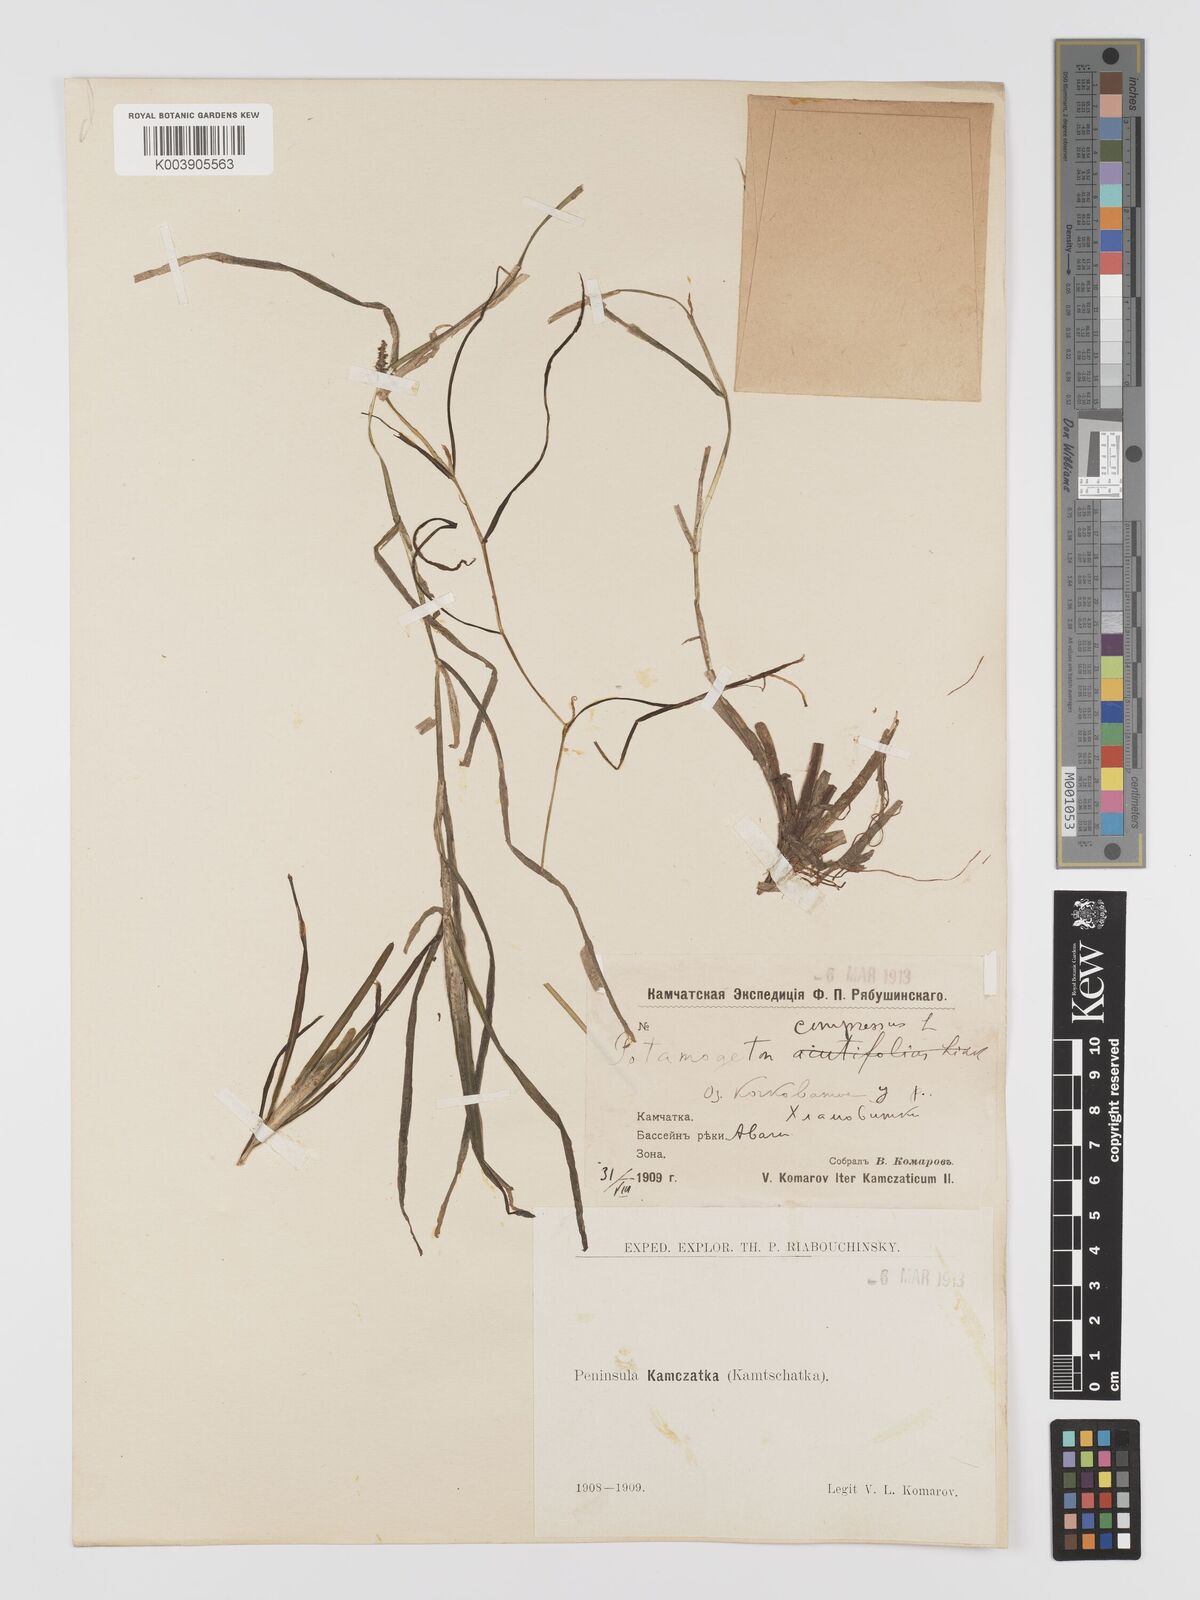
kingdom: Plantae
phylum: Tracheophyta
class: Liliopsida
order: Alismatales
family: Potamogetonaceae
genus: Potamogeton
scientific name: Potamogeton compressus
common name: Grass-wrack pondweed
